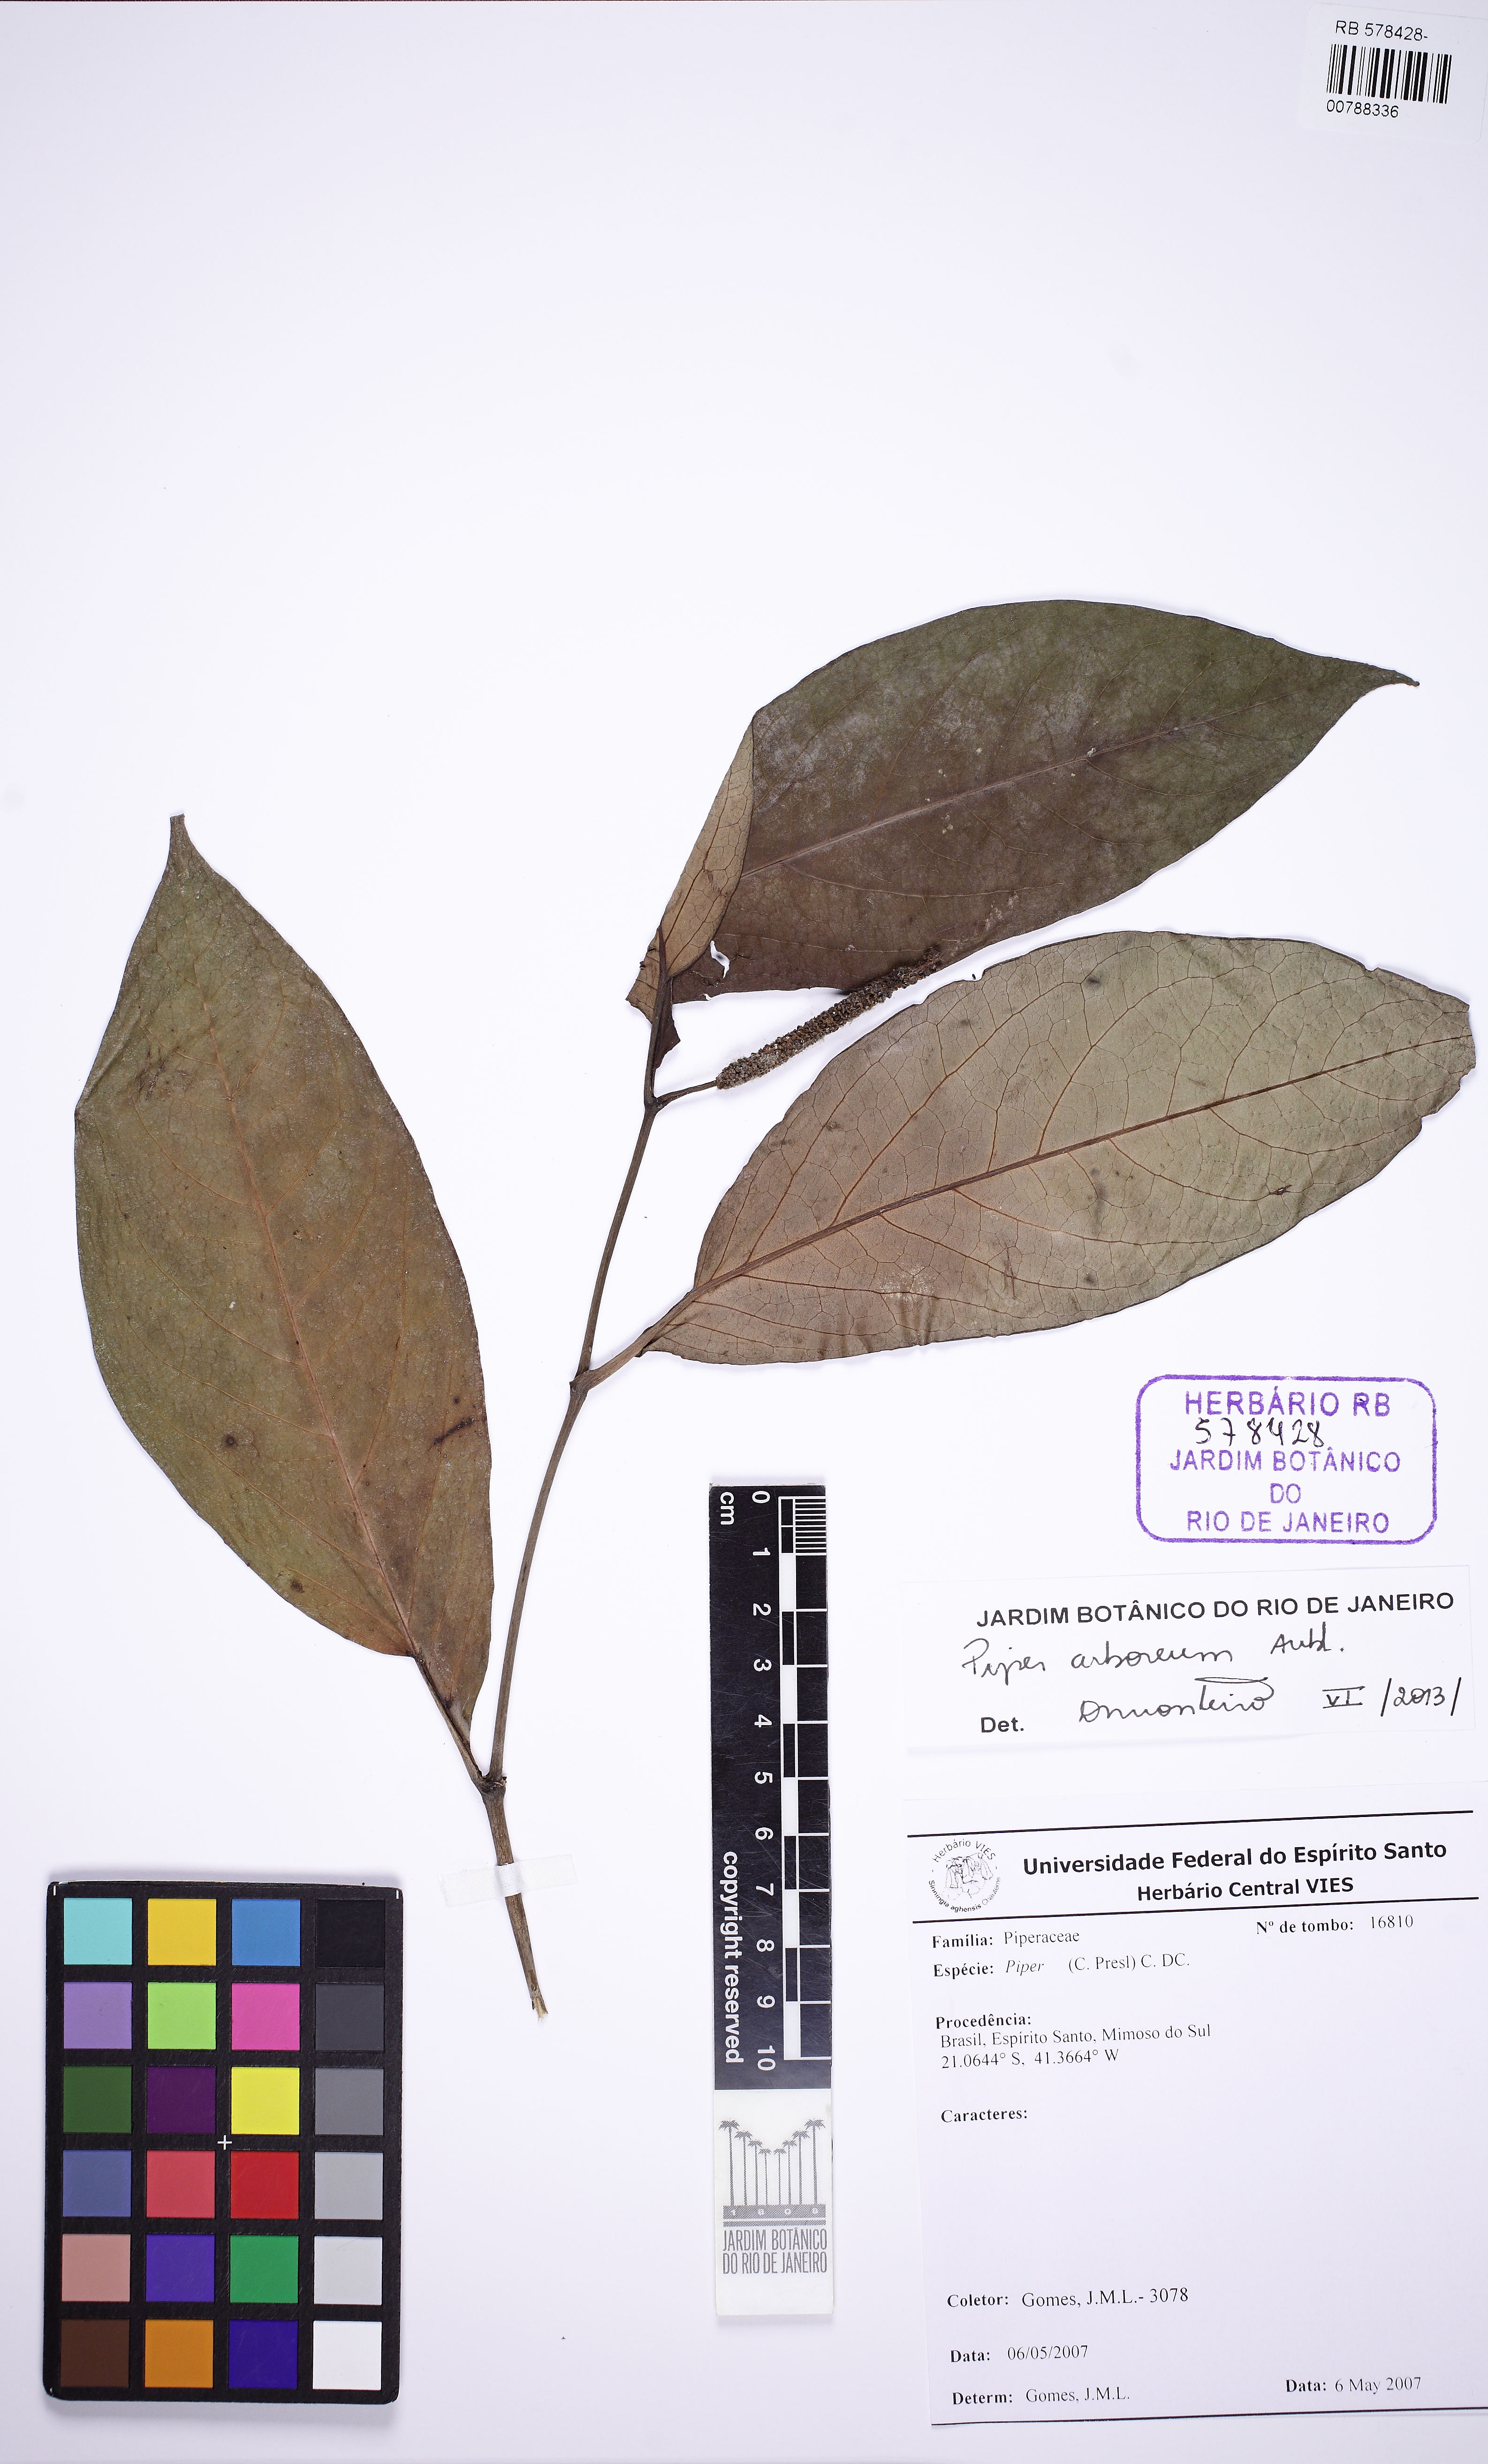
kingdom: Plantae
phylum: Tracheophyta
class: Magnoliopsida
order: Piperales
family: Piperaceae
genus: Piper
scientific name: Piper arboreum
